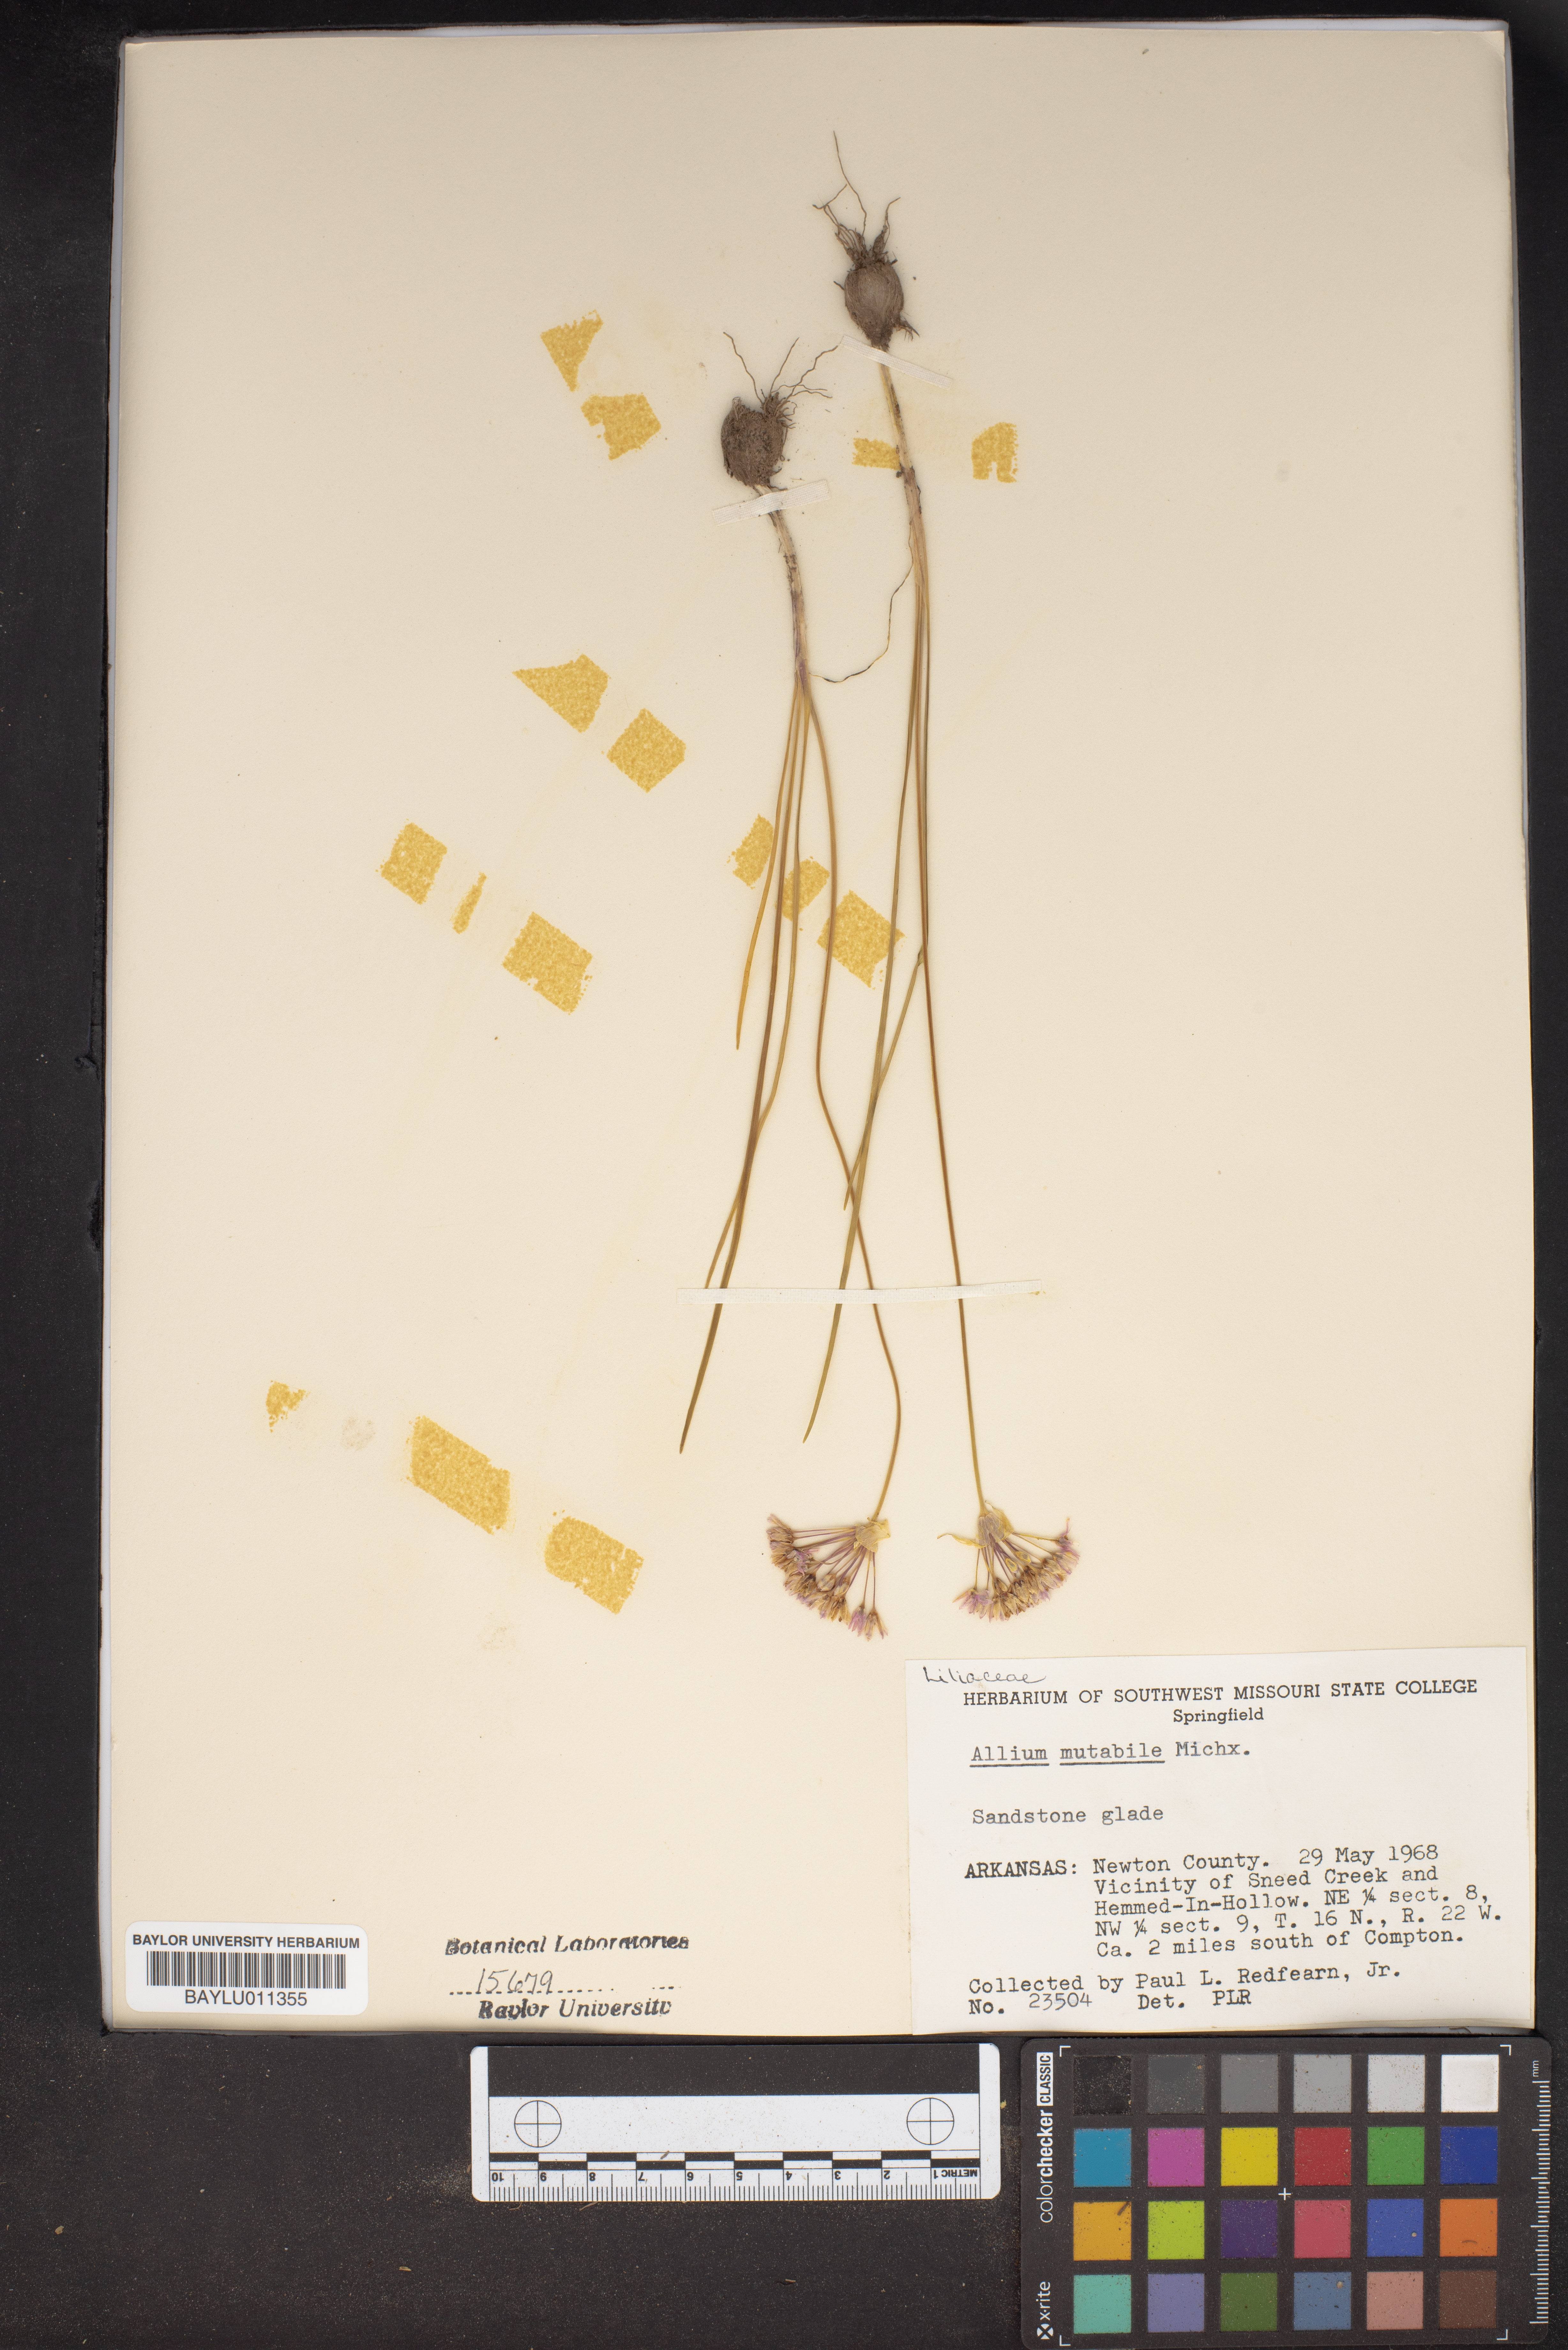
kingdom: Plantae
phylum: Tracheophyta
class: Liliopsida
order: Asparagales
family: Amaryllidaceae
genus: Allium
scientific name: Allium canadense
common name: Meadow garlic
